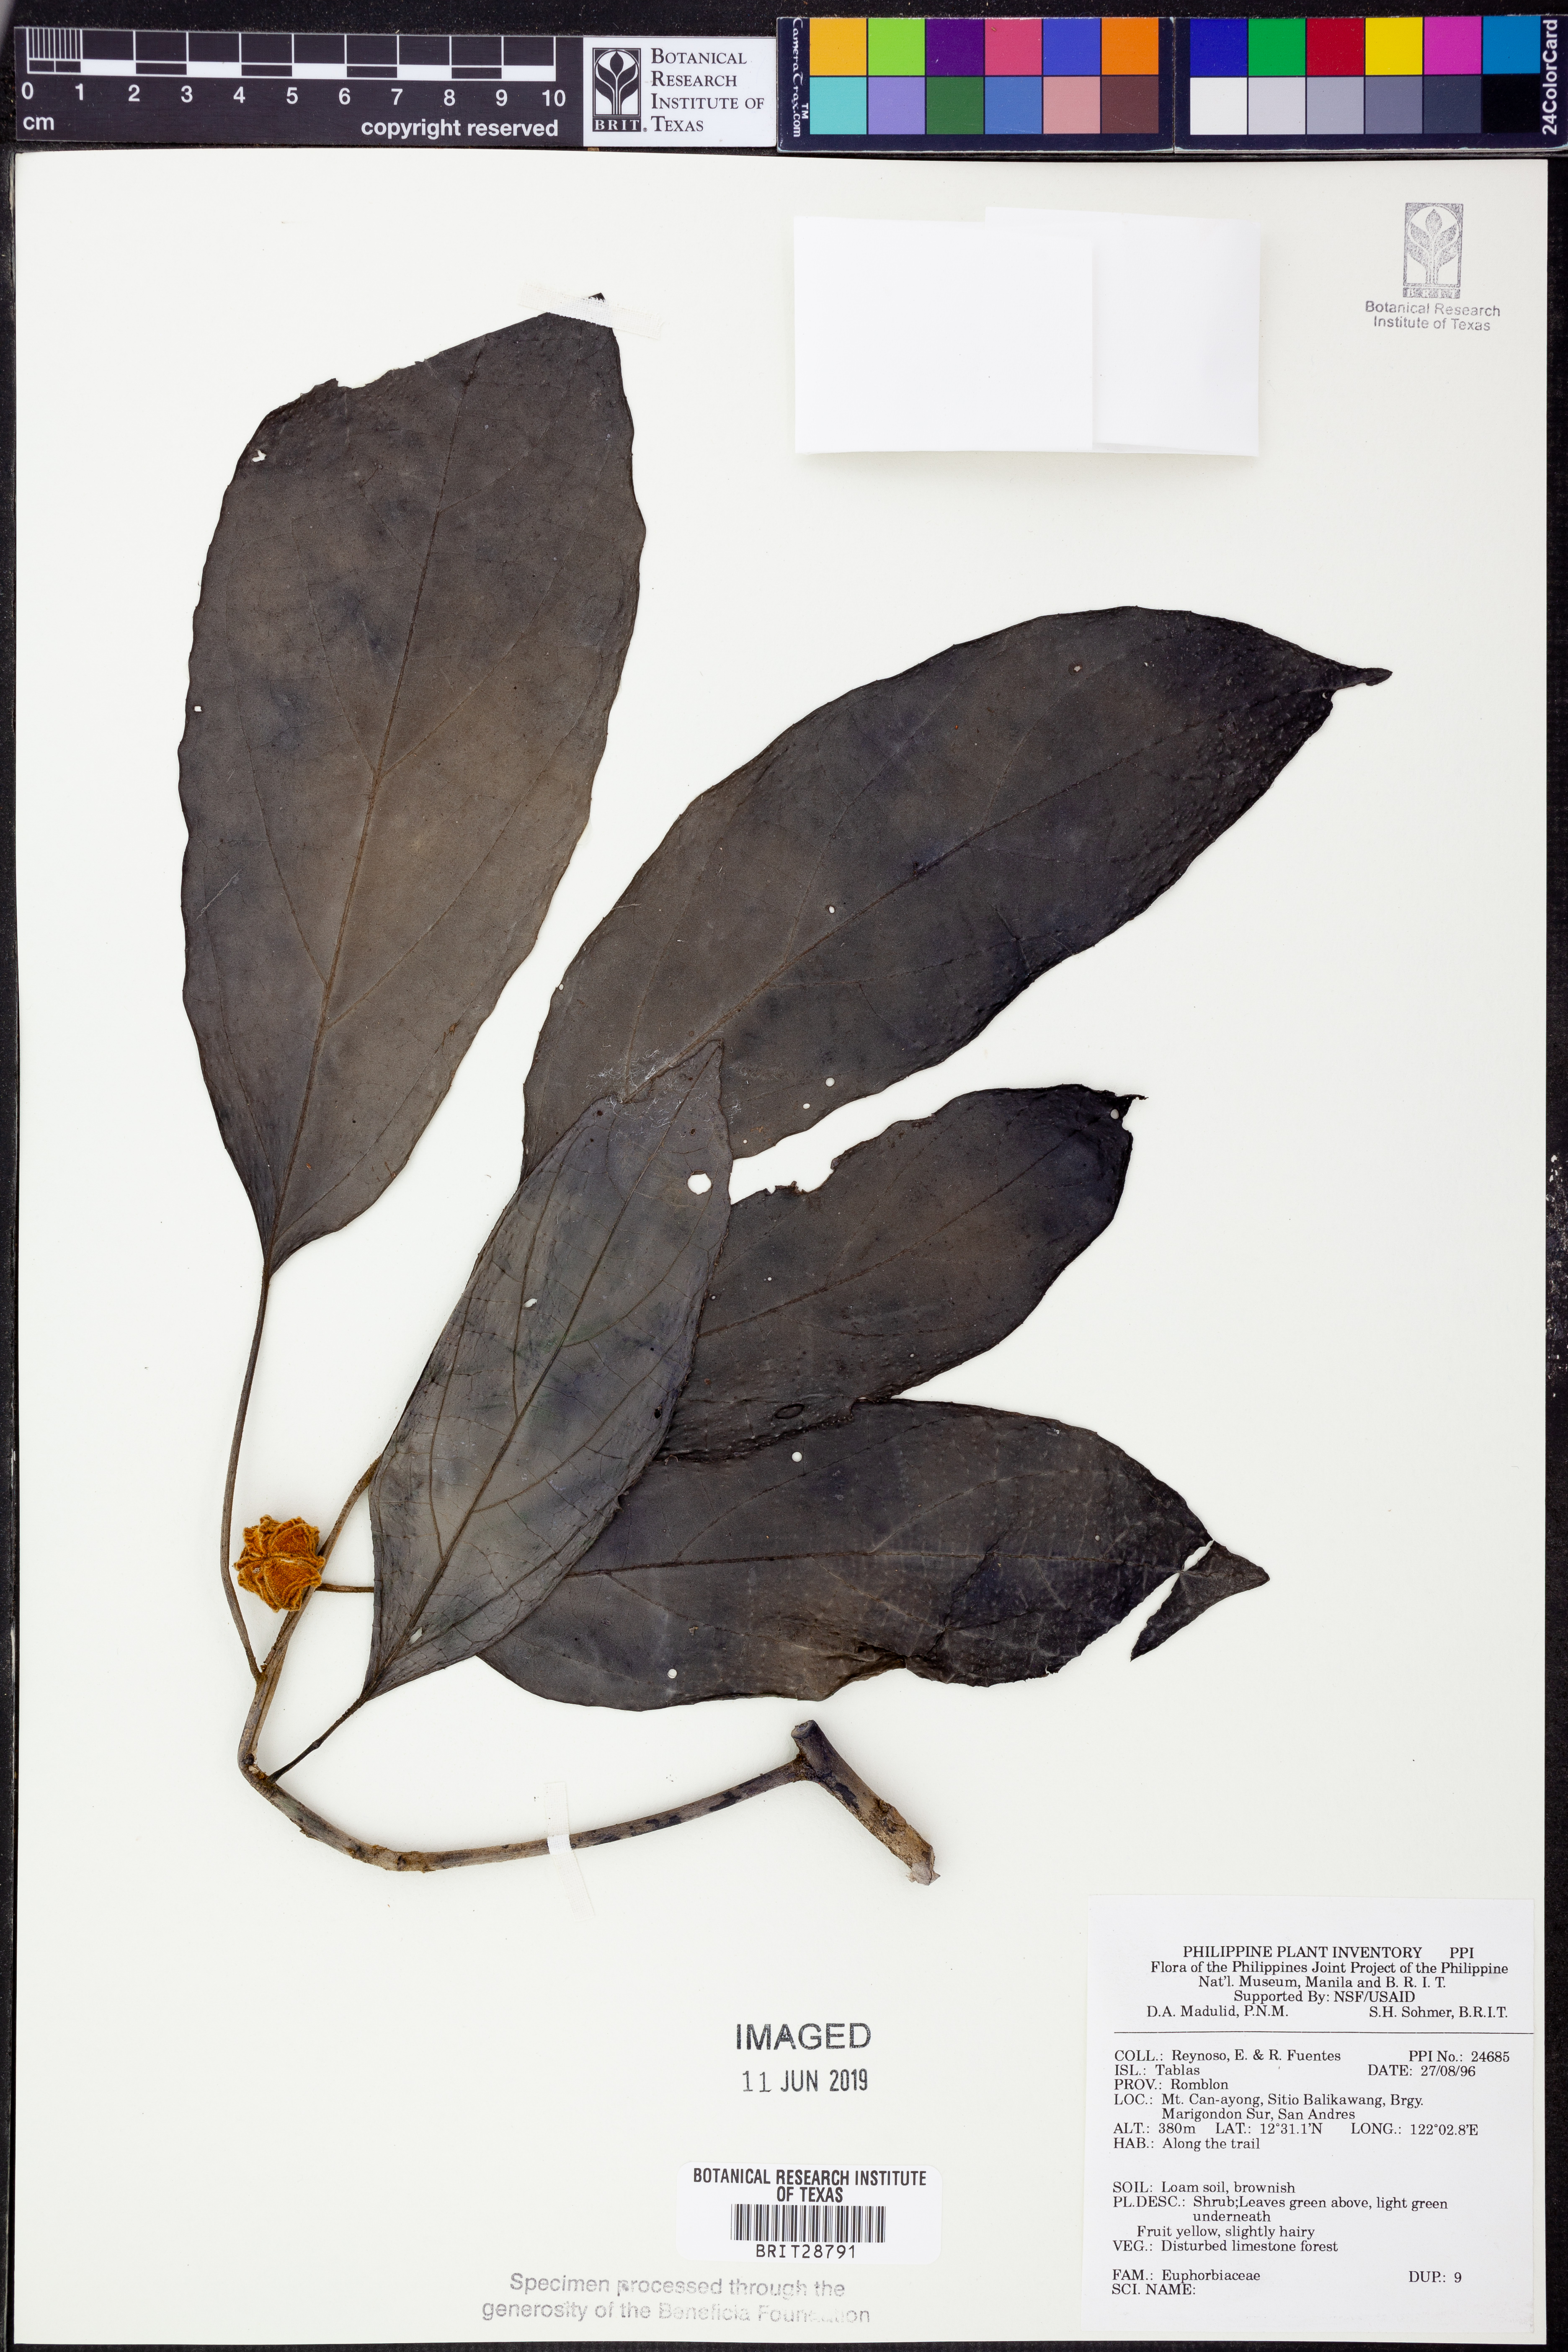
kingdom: Plantae
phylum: Tracheophyta
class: Magnoliopsida
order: Malpighiales
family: Euphorbiaceae
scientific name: Euphorbiaceae
